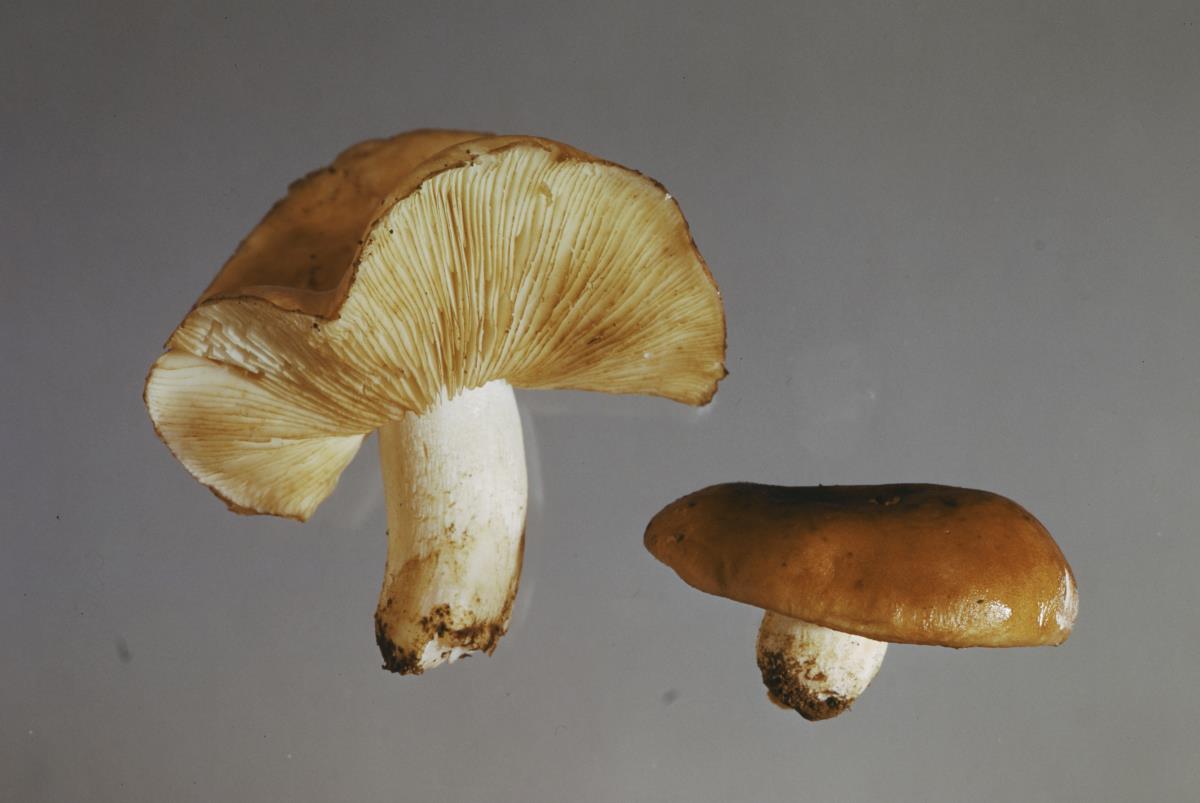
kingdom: Fungi
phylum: Basidiomycota
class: Agaricomycetes
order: Agaricales
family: Tricholomataceae
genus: Tricholoma
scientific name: Tricholoma
